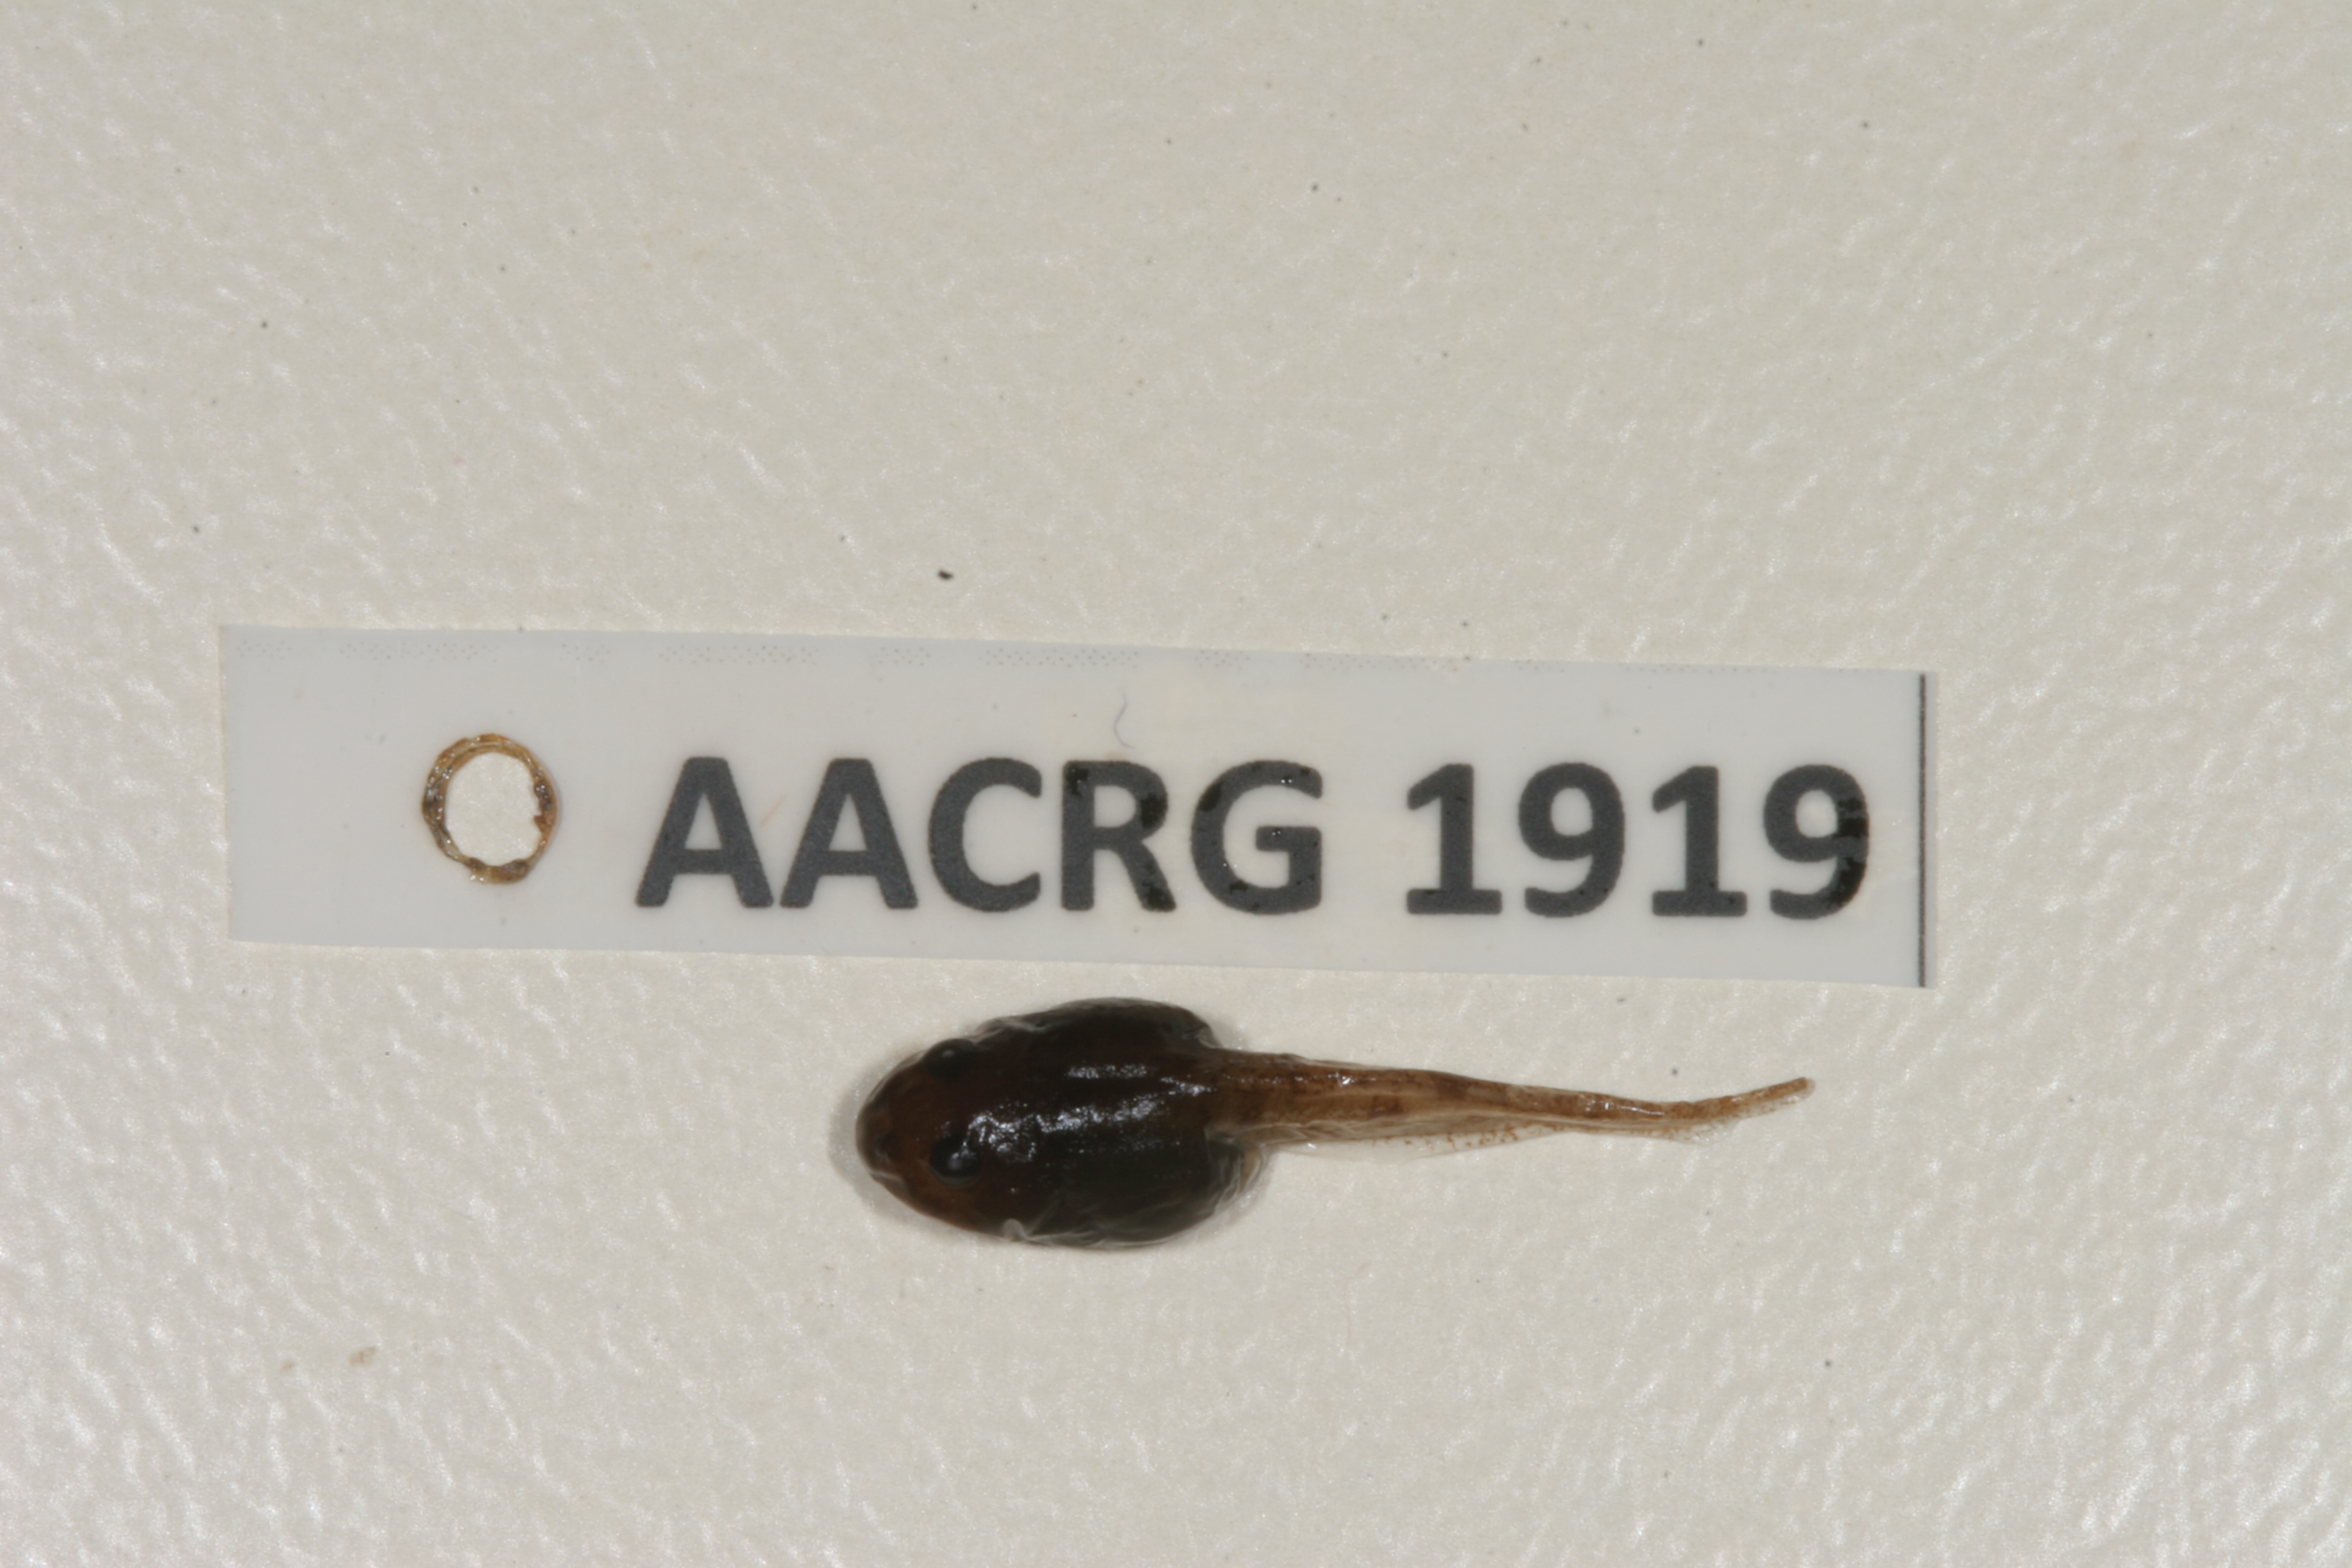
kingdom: Animalia
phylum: Chordata
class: Amphibia
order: Anura
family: Ptychadenidae
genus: Ptychadena
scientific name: Ptychadena mascareniensis
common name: Mascarene grass frog
